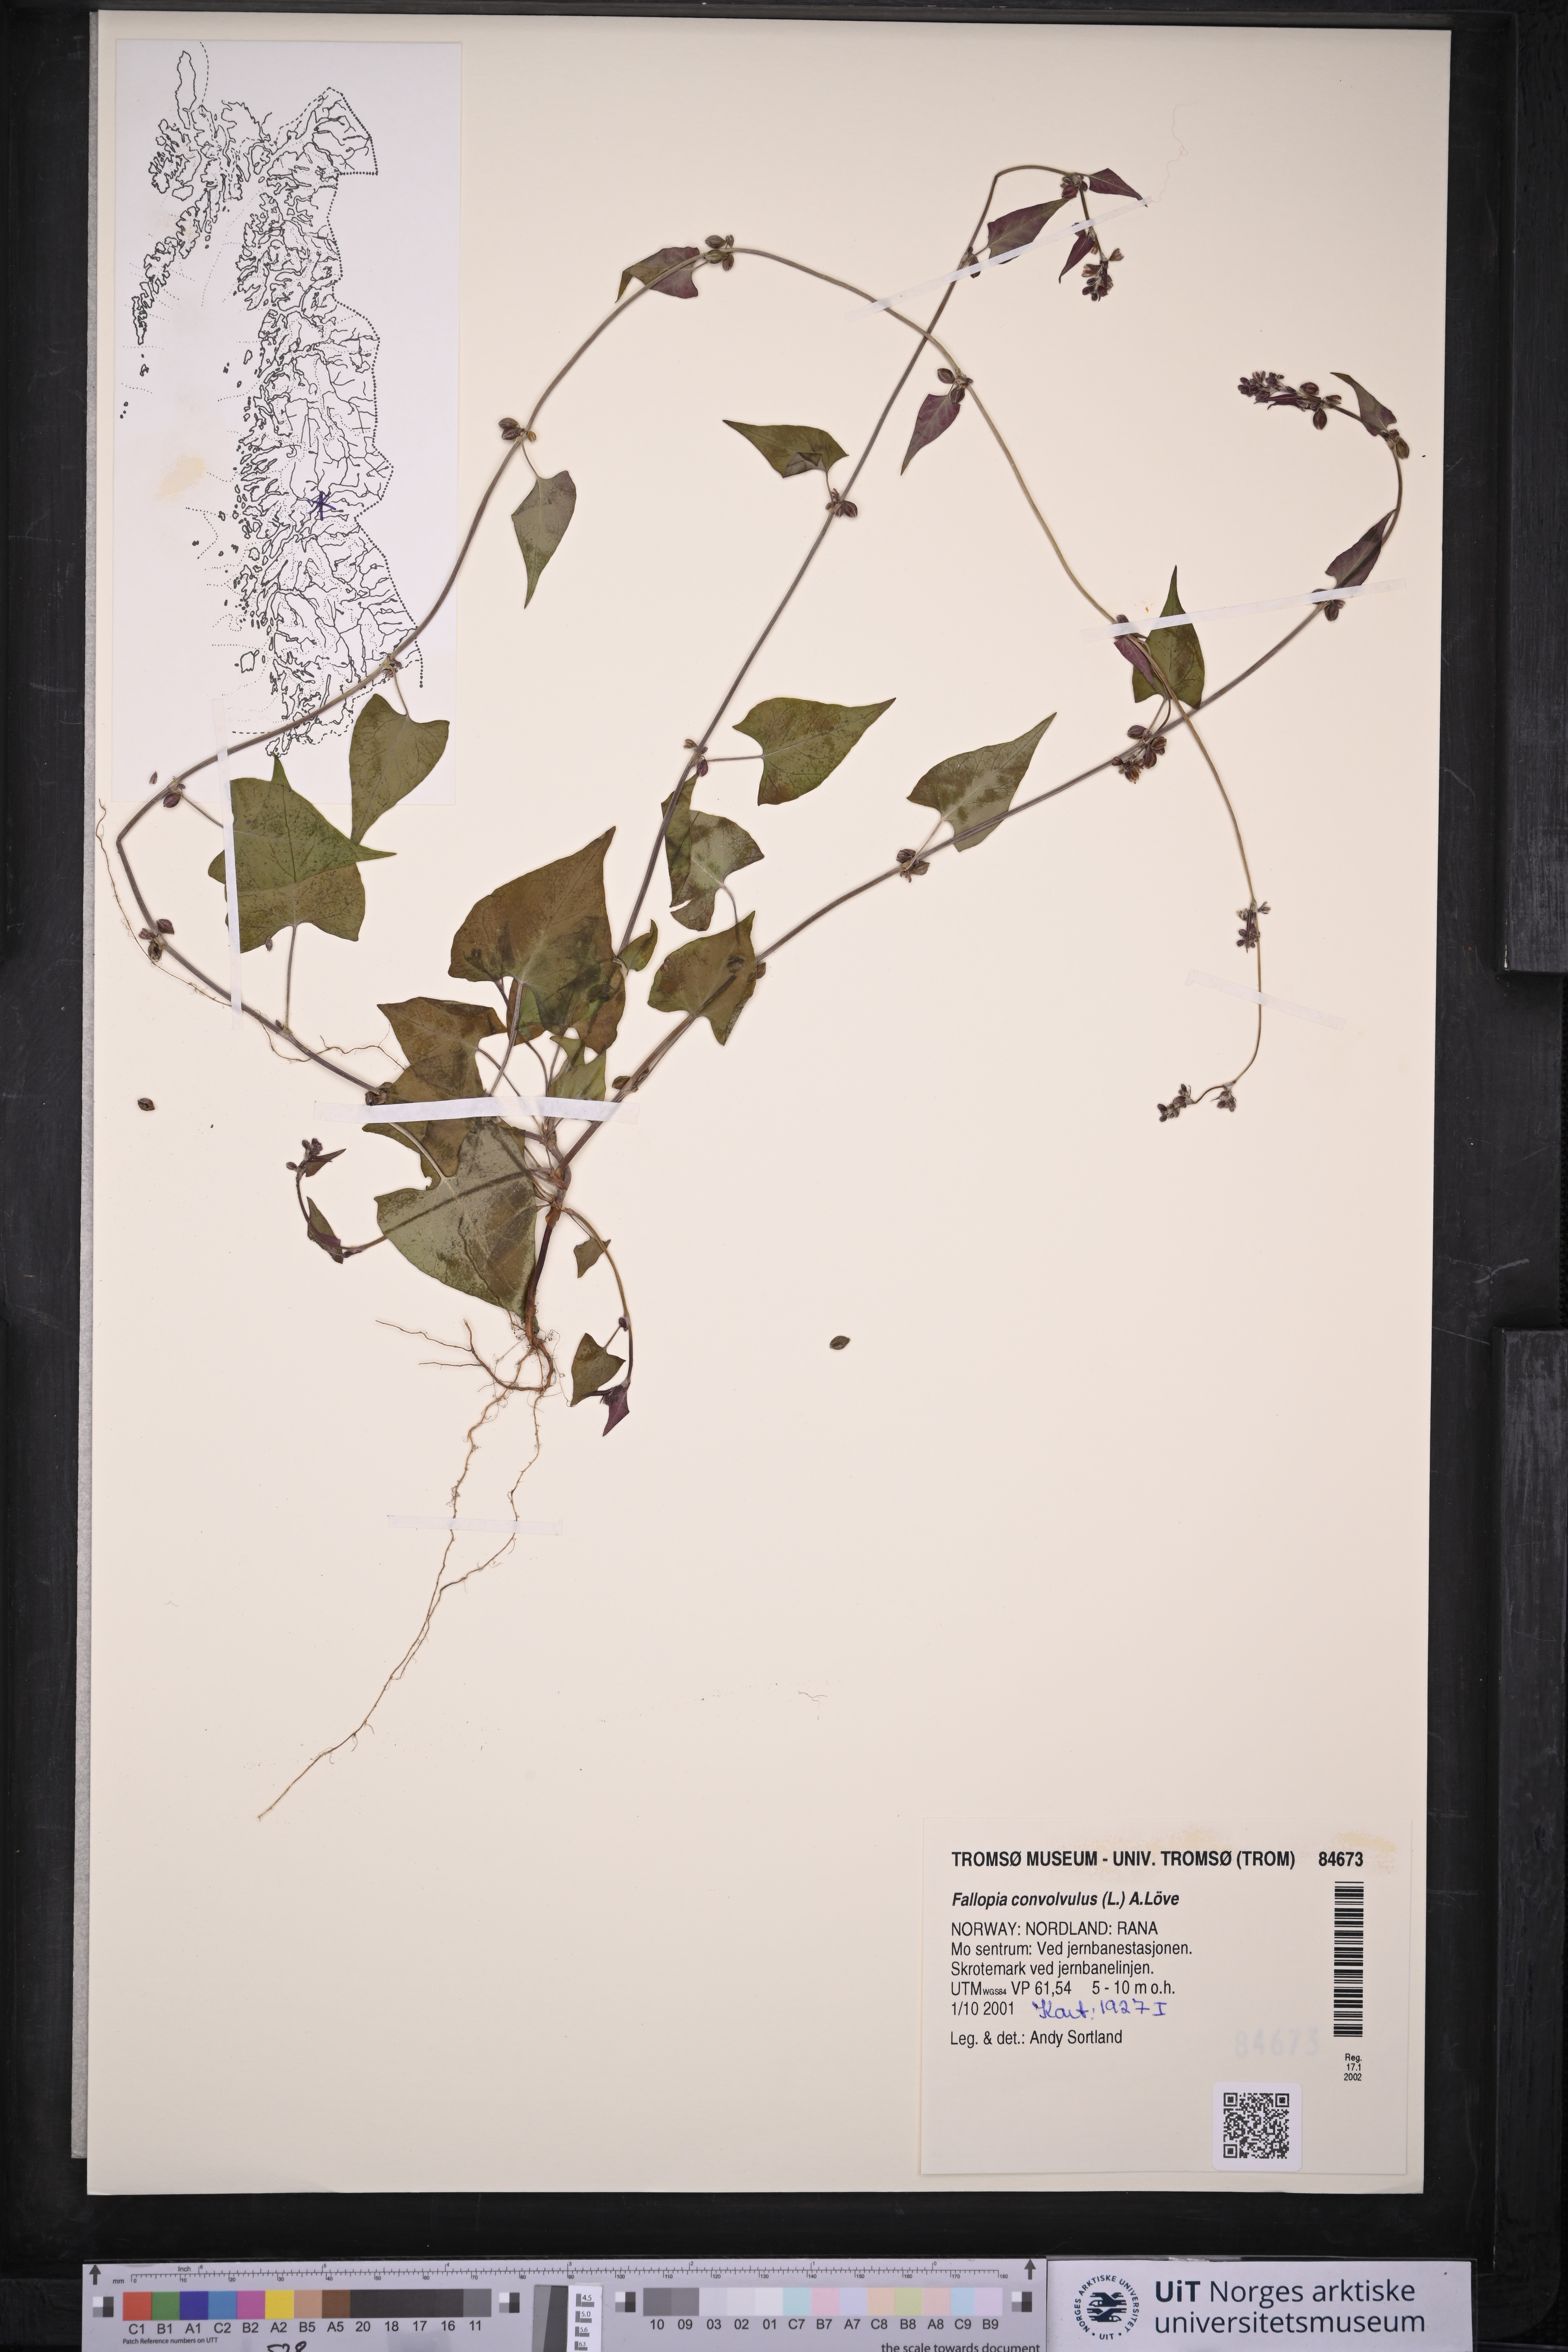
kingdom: Plantae
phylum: Tracheophyta
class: Magnoliopsida
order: Caryophyllales
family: Polygonaceae
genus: Fallopia
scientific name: Fallopia convolvulus
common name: Black bindweed
